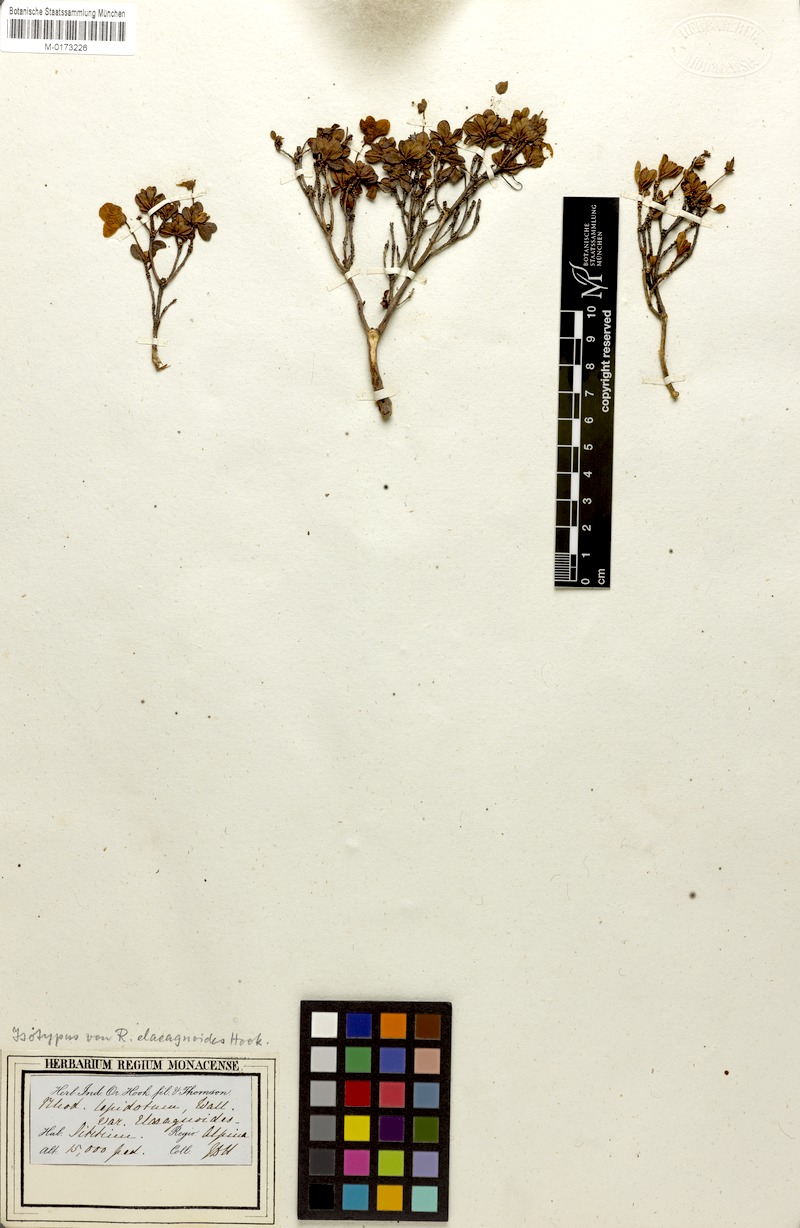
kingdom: Plantae
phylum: Tracheophyta
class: Magnoliopsida
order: Ericales
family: Ericaceae
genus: Rhododendron
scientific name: Rhododendron lepidotum
